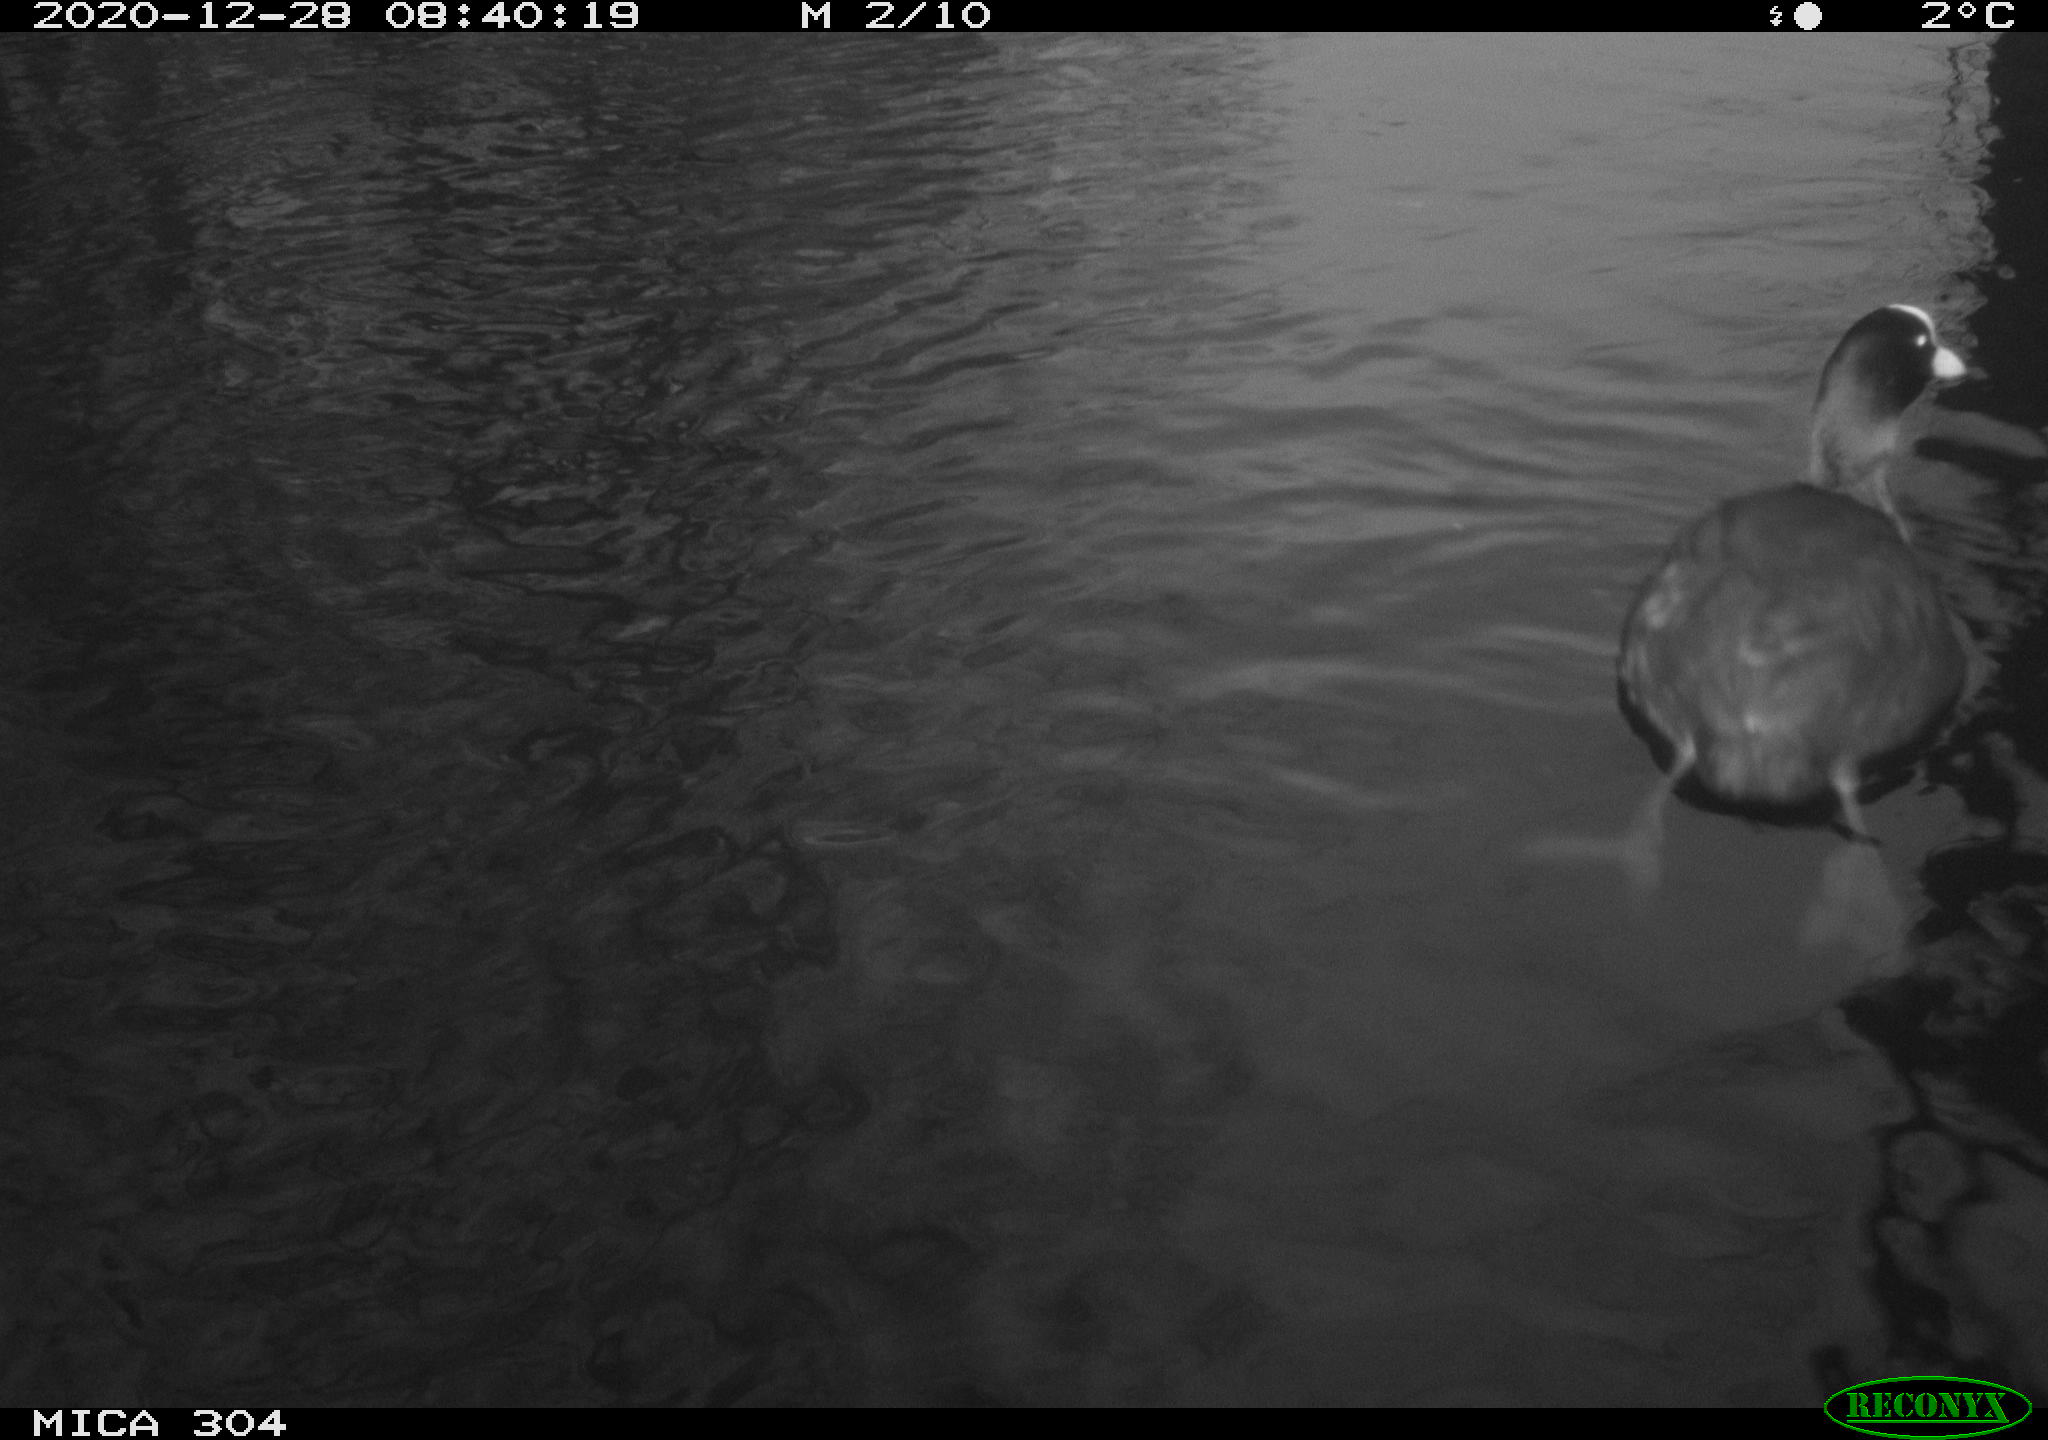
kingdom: Animalia
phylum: Chordata
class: Aves
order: Gruiformes
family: Rallidae
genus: Fulica
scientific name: Fulica atra
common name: Eurasian coot
